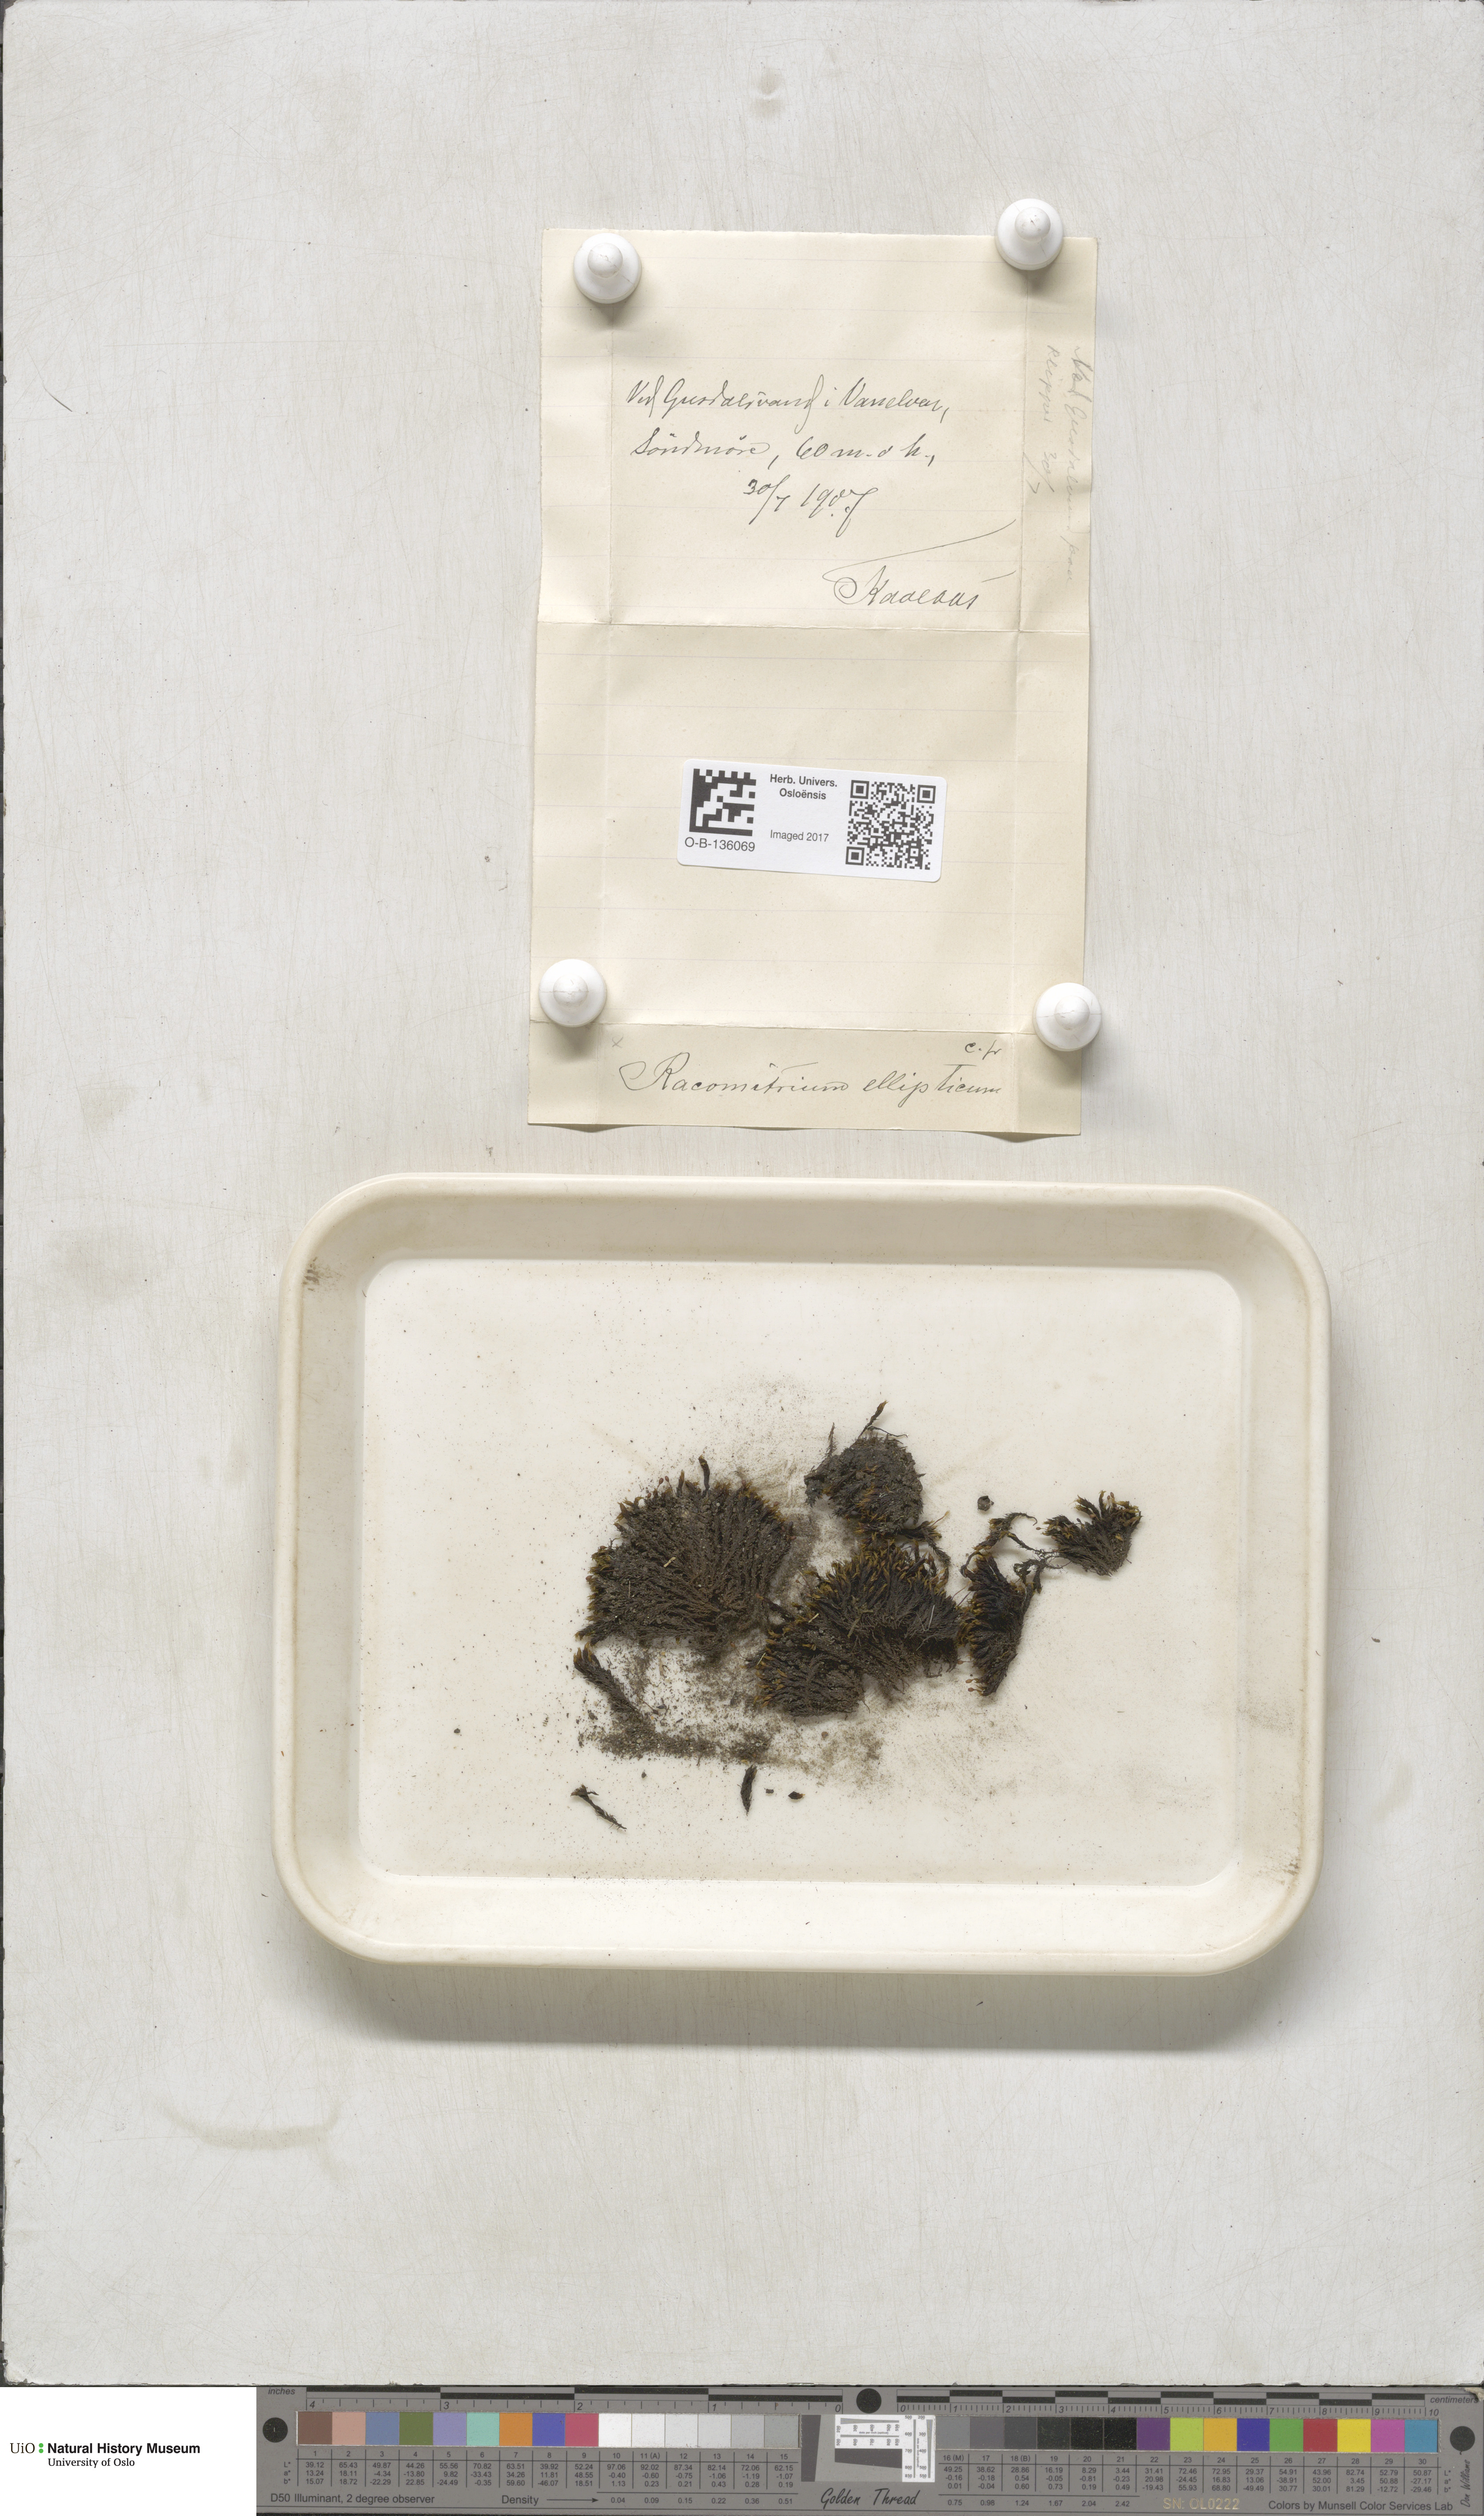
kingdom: Plantae
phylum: Bryophyta
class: Bryopsida
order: Grimmiales
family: Grimmiaceae
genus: Bucklandiella
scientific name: Bucklandiella elliptica
